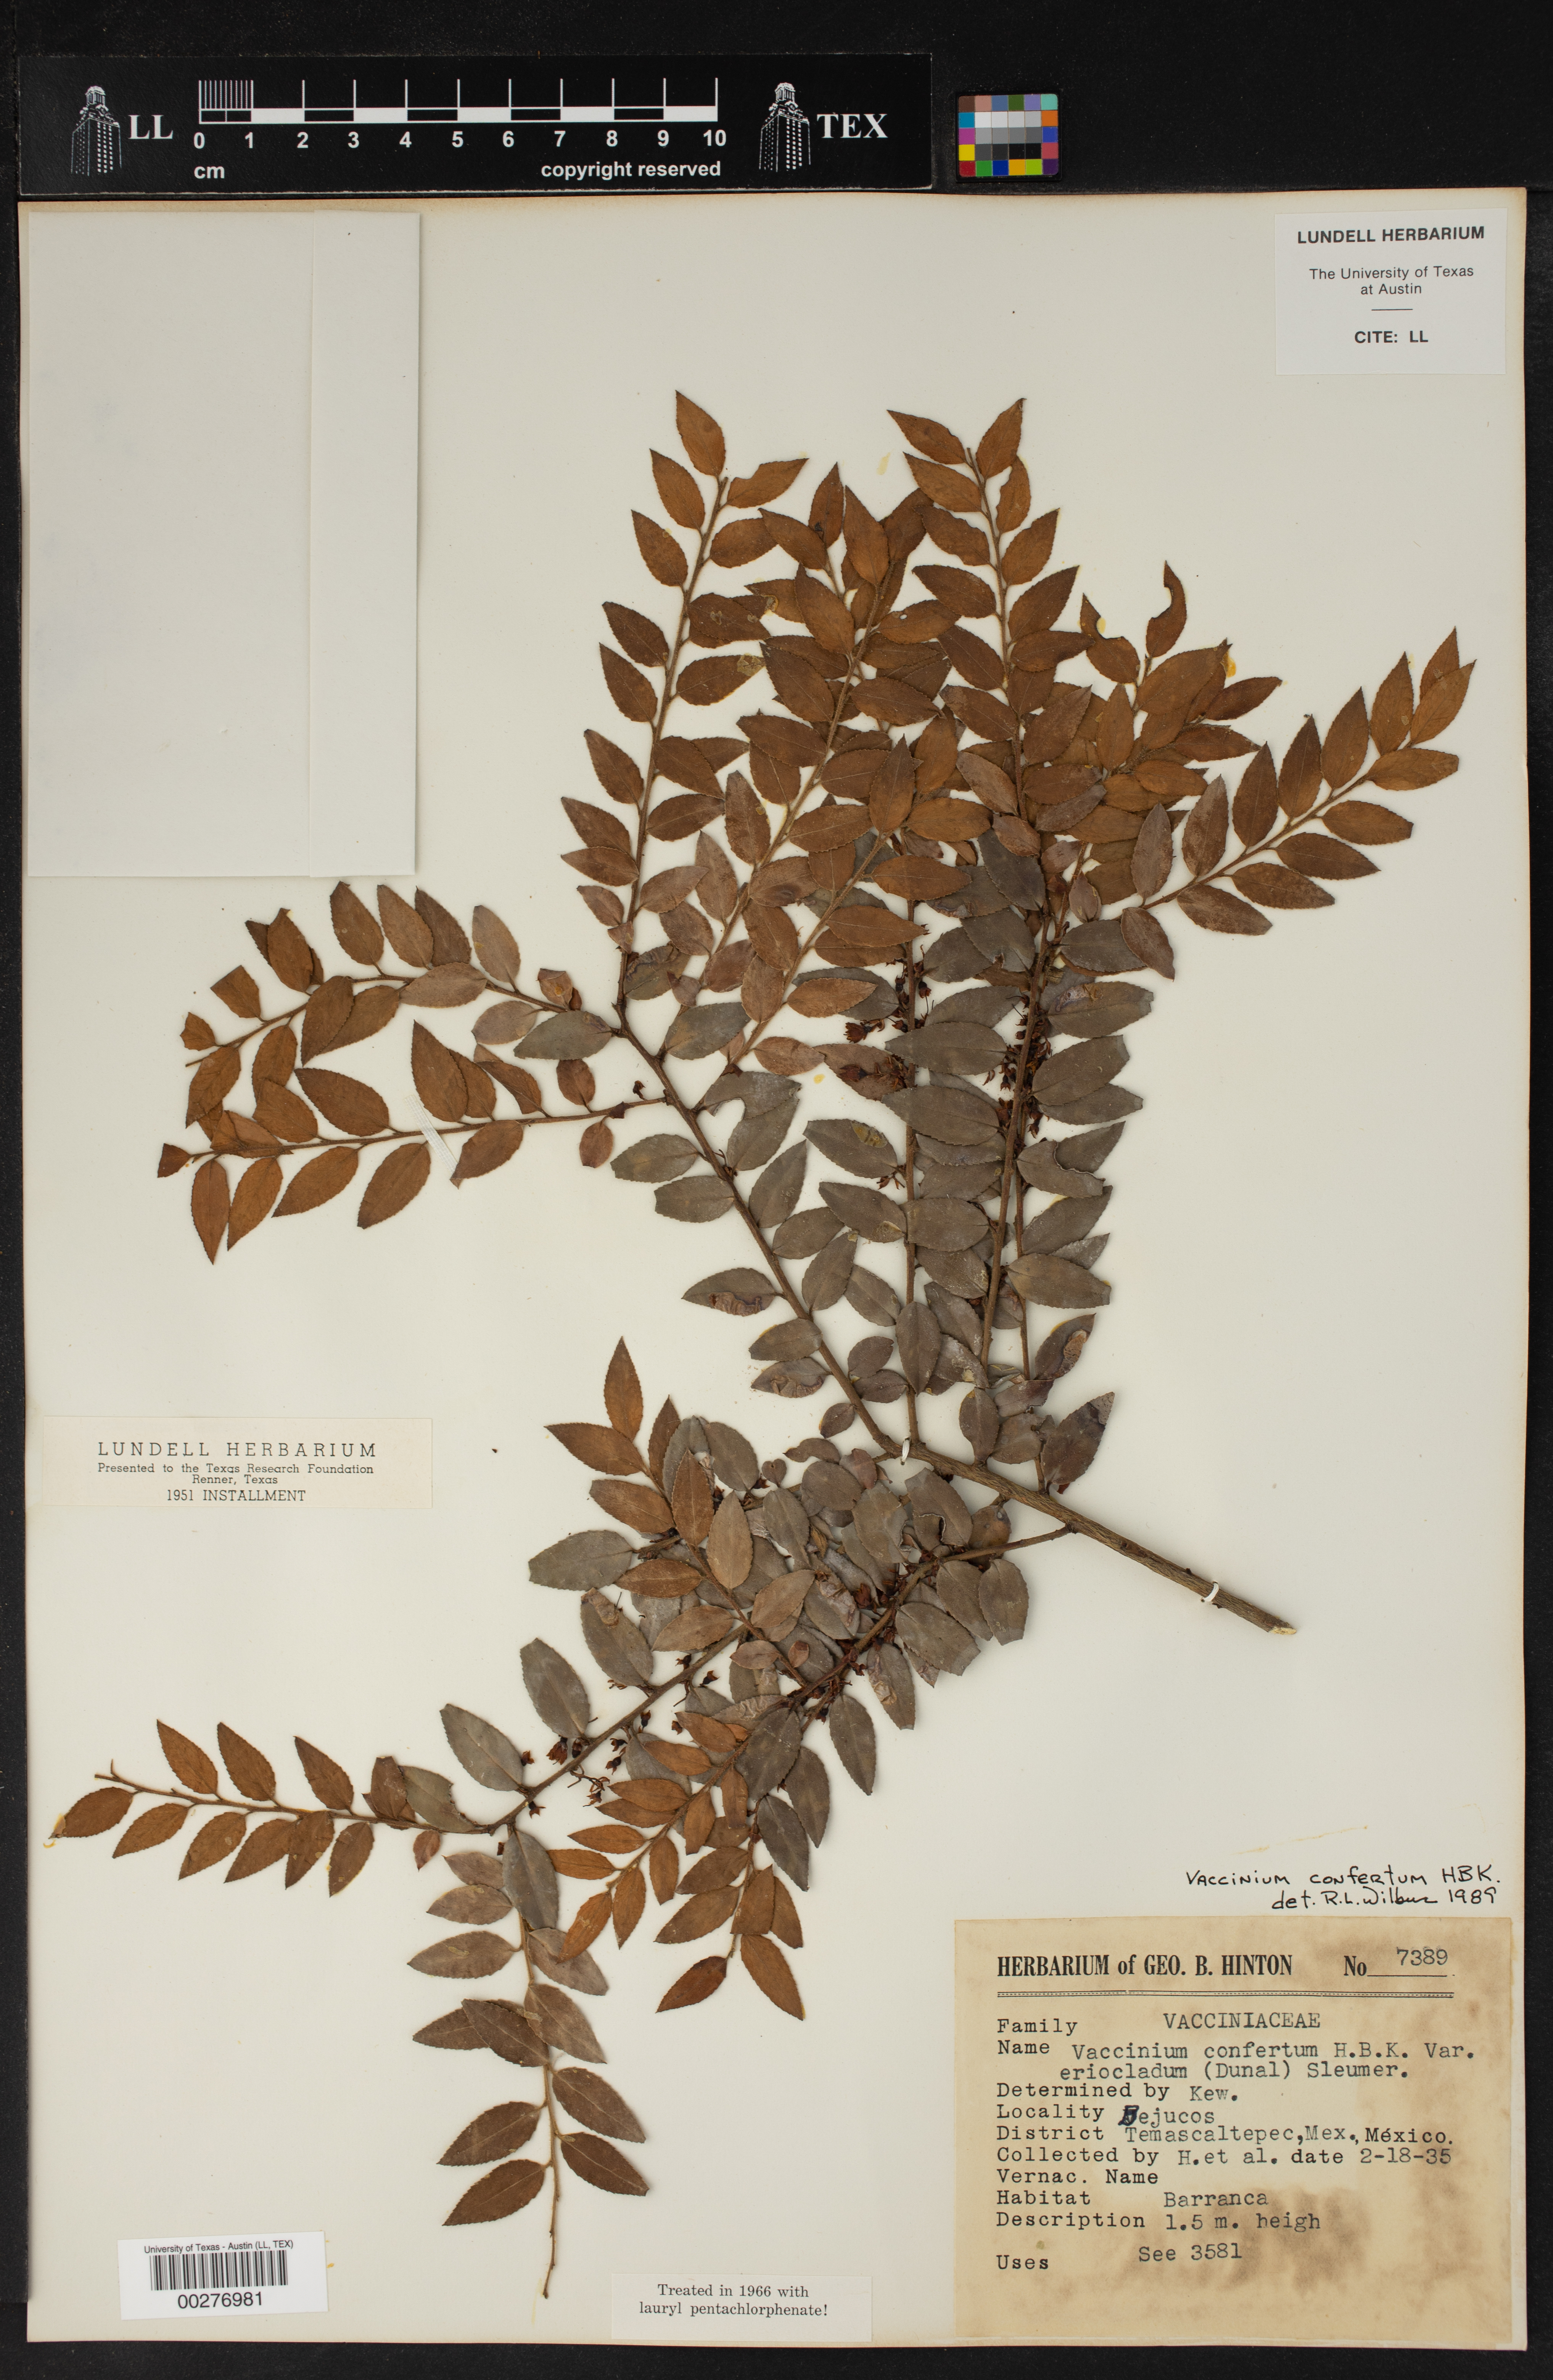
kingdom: Plantae
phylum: Tracheophyta
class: Magnoliopsida
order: Ericales
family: Ericaceae
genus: Vaccinium
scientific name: Vaccinium confertum
